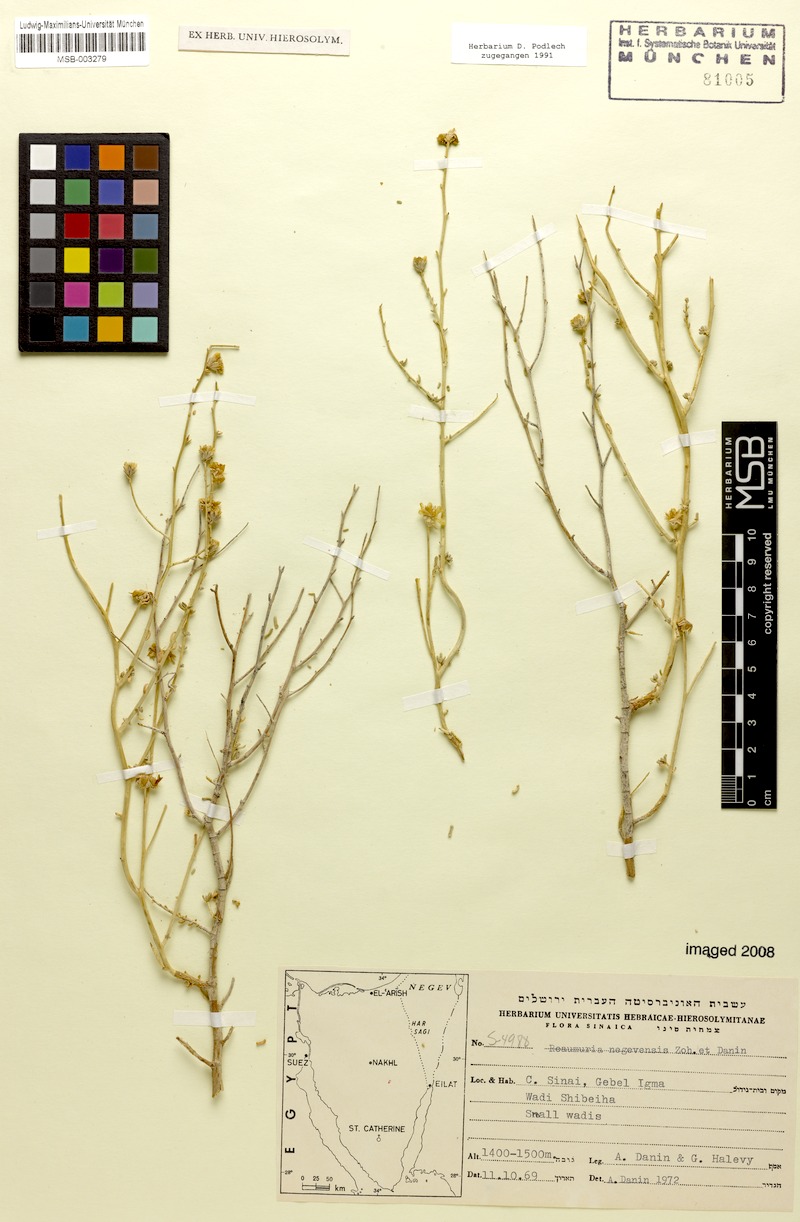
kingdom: Plantae
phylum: Tracheophyta
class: Magnoliopsida
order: Caryophyllales
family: Tamaricaceae
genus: Reaumuria
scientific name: Reaumuria negevensis
